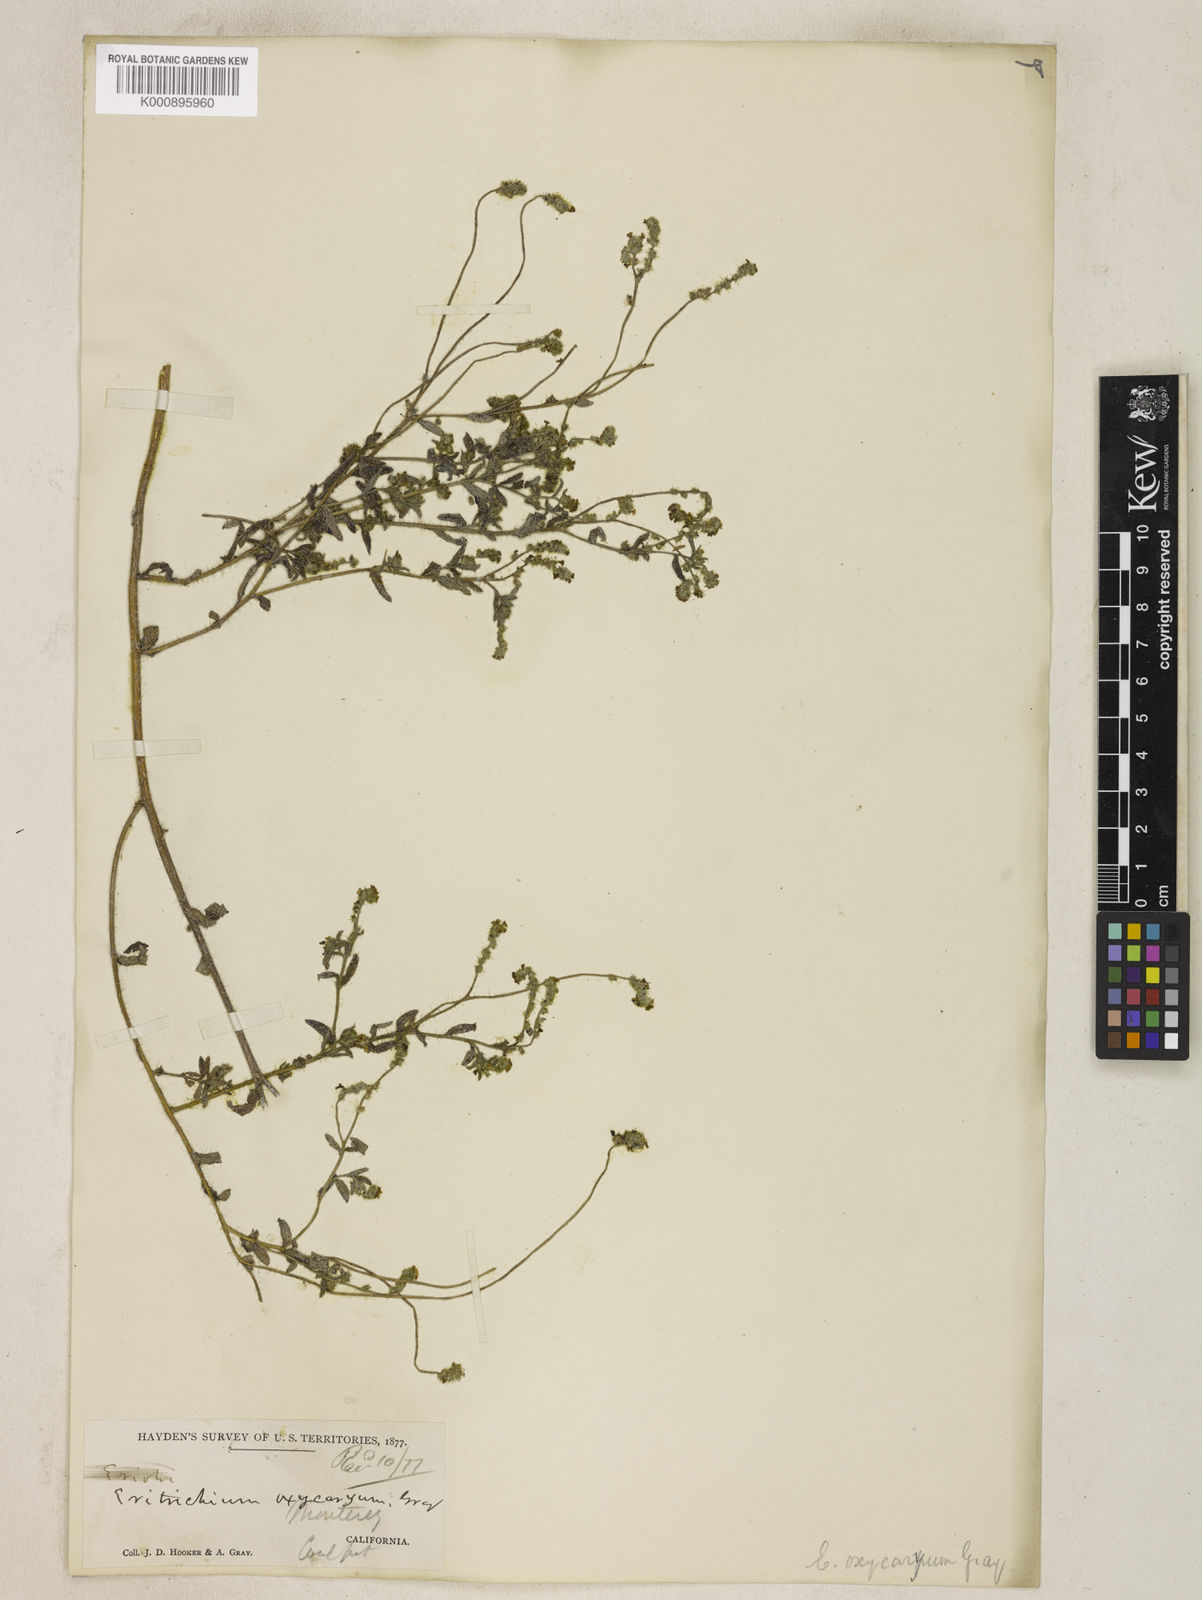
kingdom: Plantae
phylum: Tracheophyta
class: Magnoliopsida
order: Boraginales
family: Boraginaceae
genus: Cryptantha
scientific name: Cryptantha flaccida
